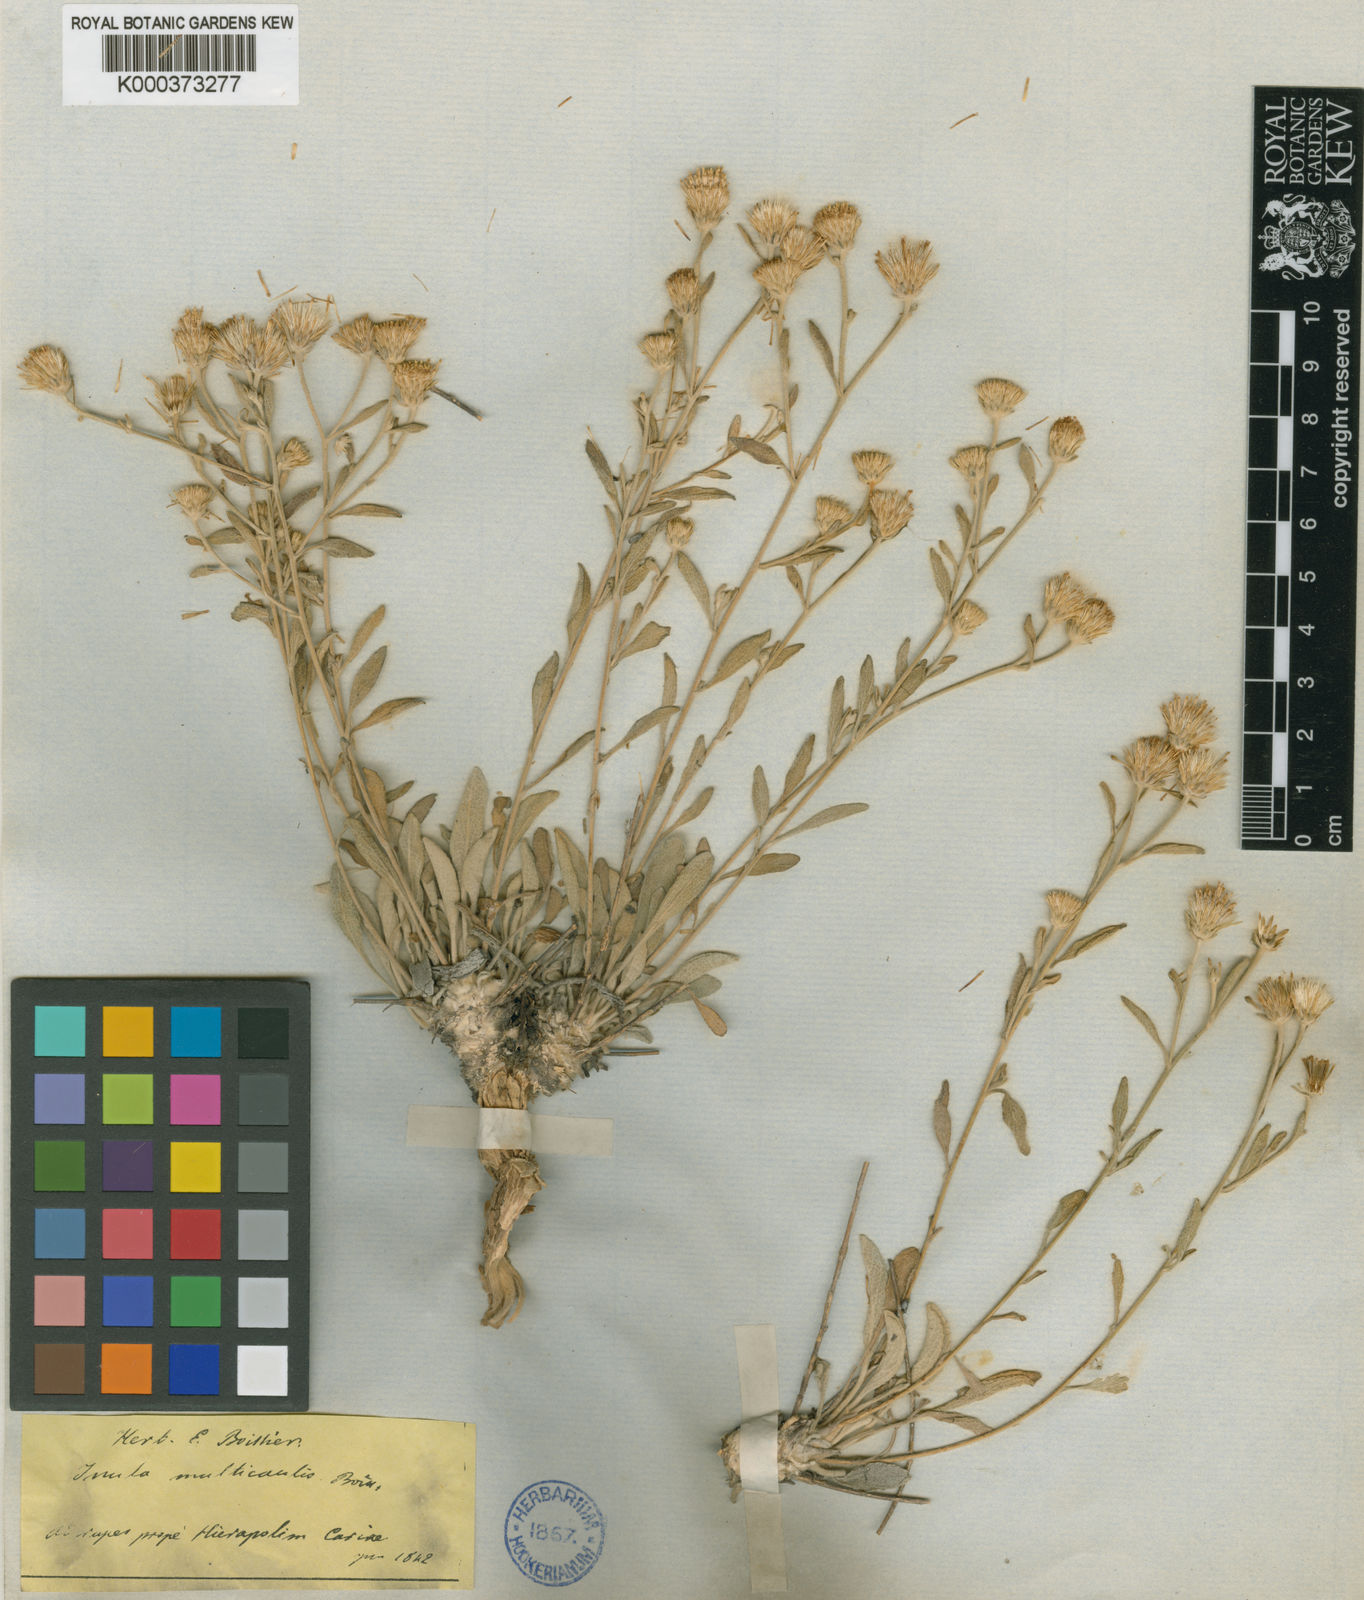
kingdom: Plantae
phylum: Tracheophyta
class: Magnoliopsida
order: Asterales
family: Asteraceae
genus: Inula
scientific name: Inula anatolica
